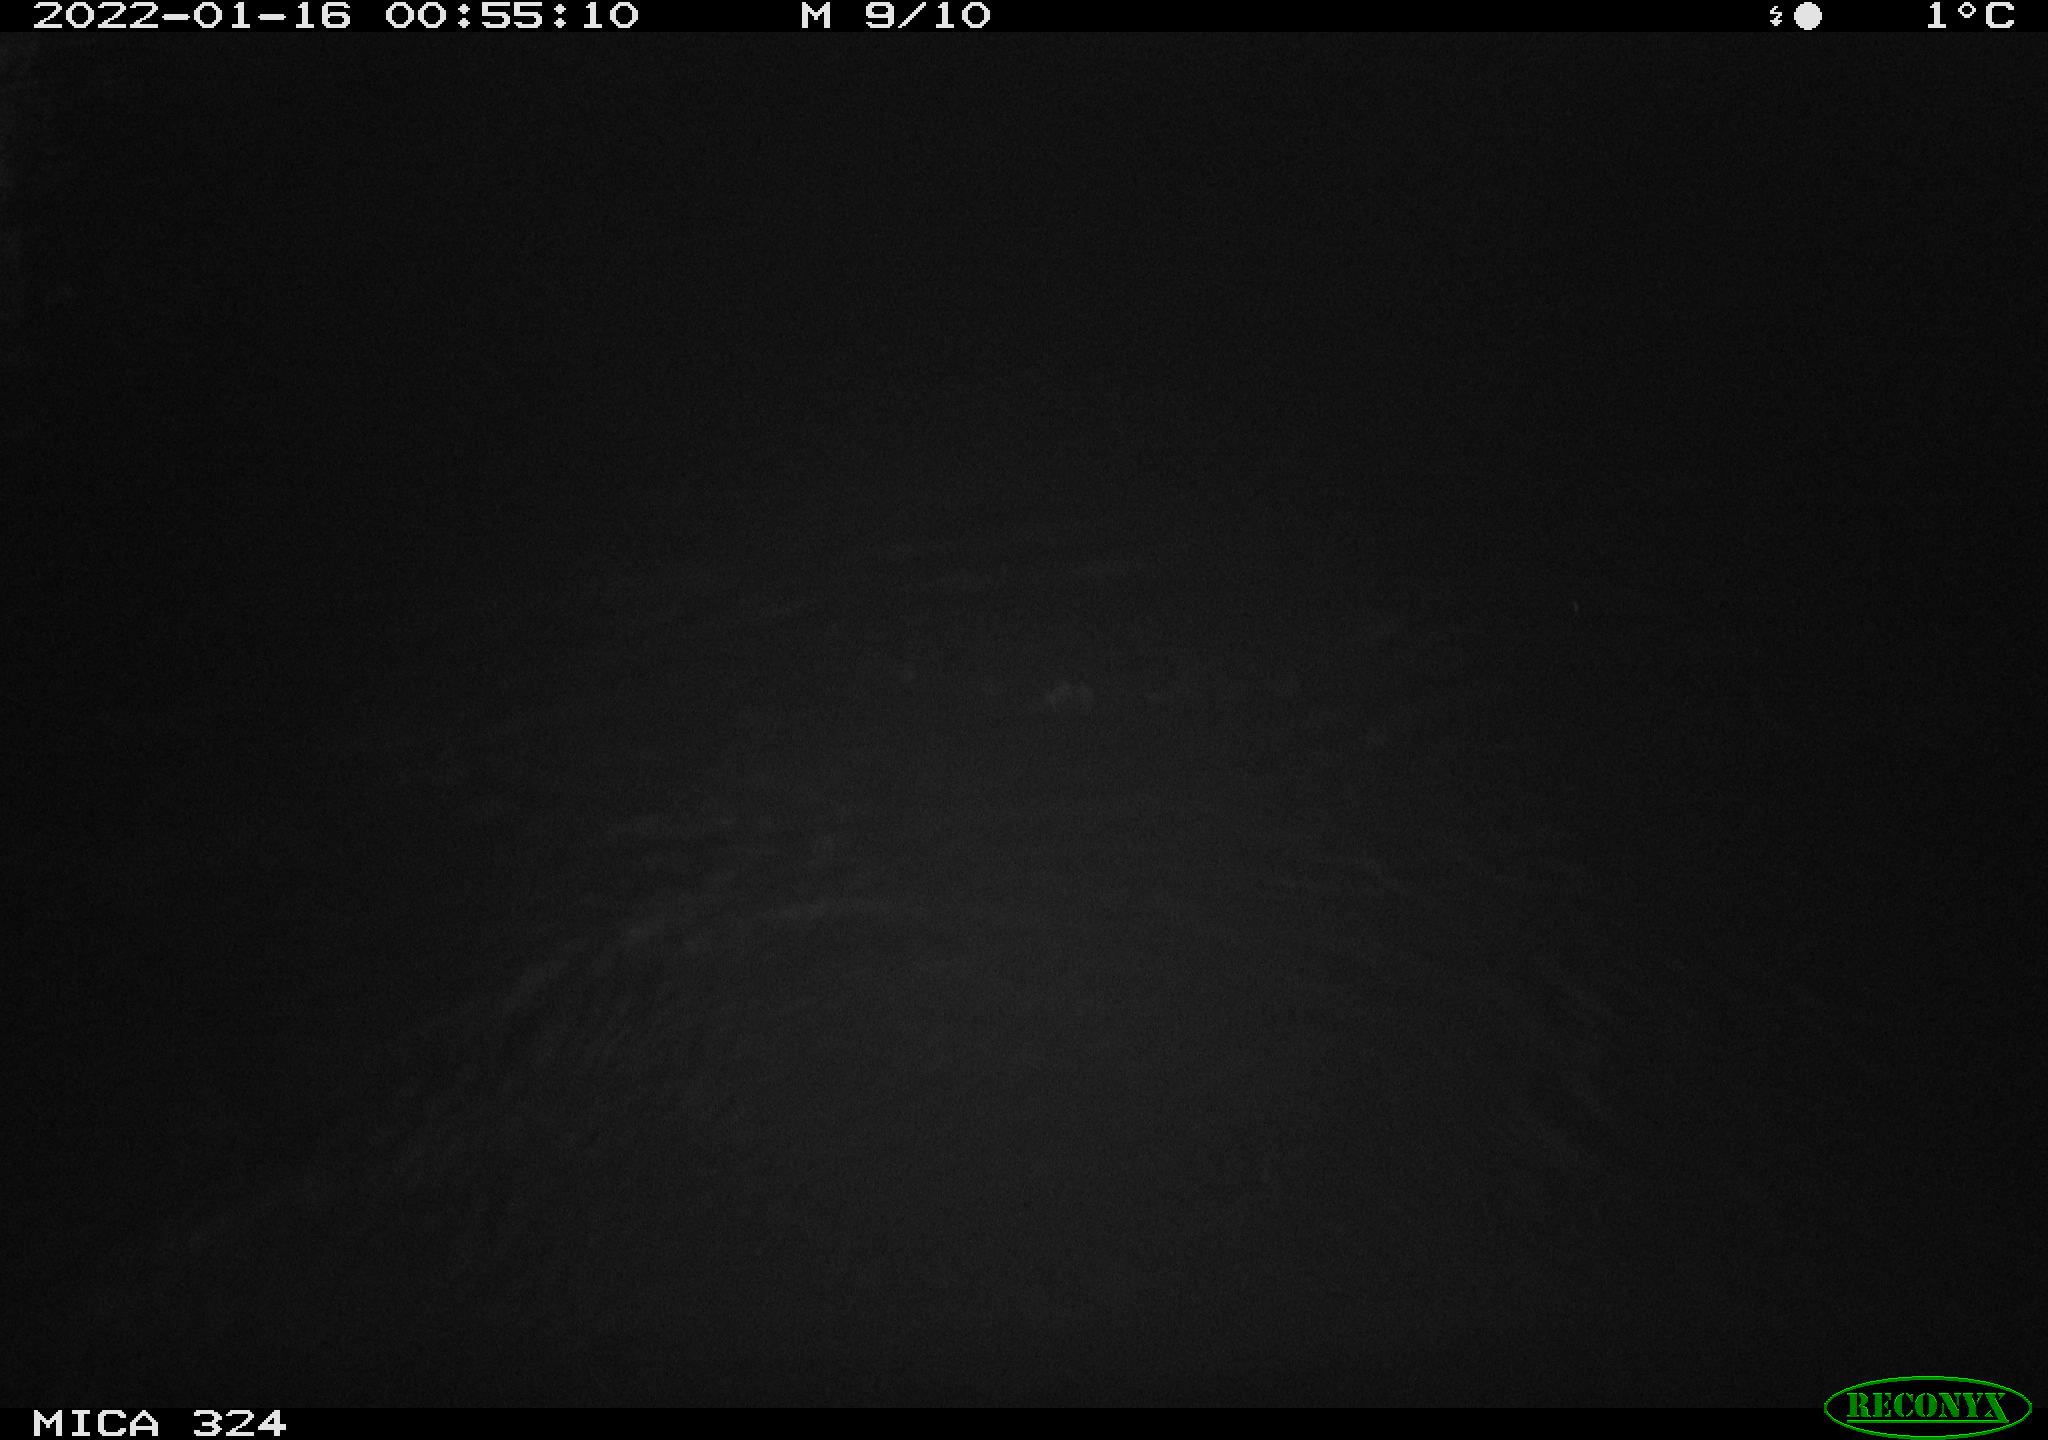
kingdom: Animalia
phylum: Chordata
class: Mammalia
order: Rodentia
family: Cricetidae
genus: Ondatra
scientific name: Ondatra zibethicus
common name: Muskrat
